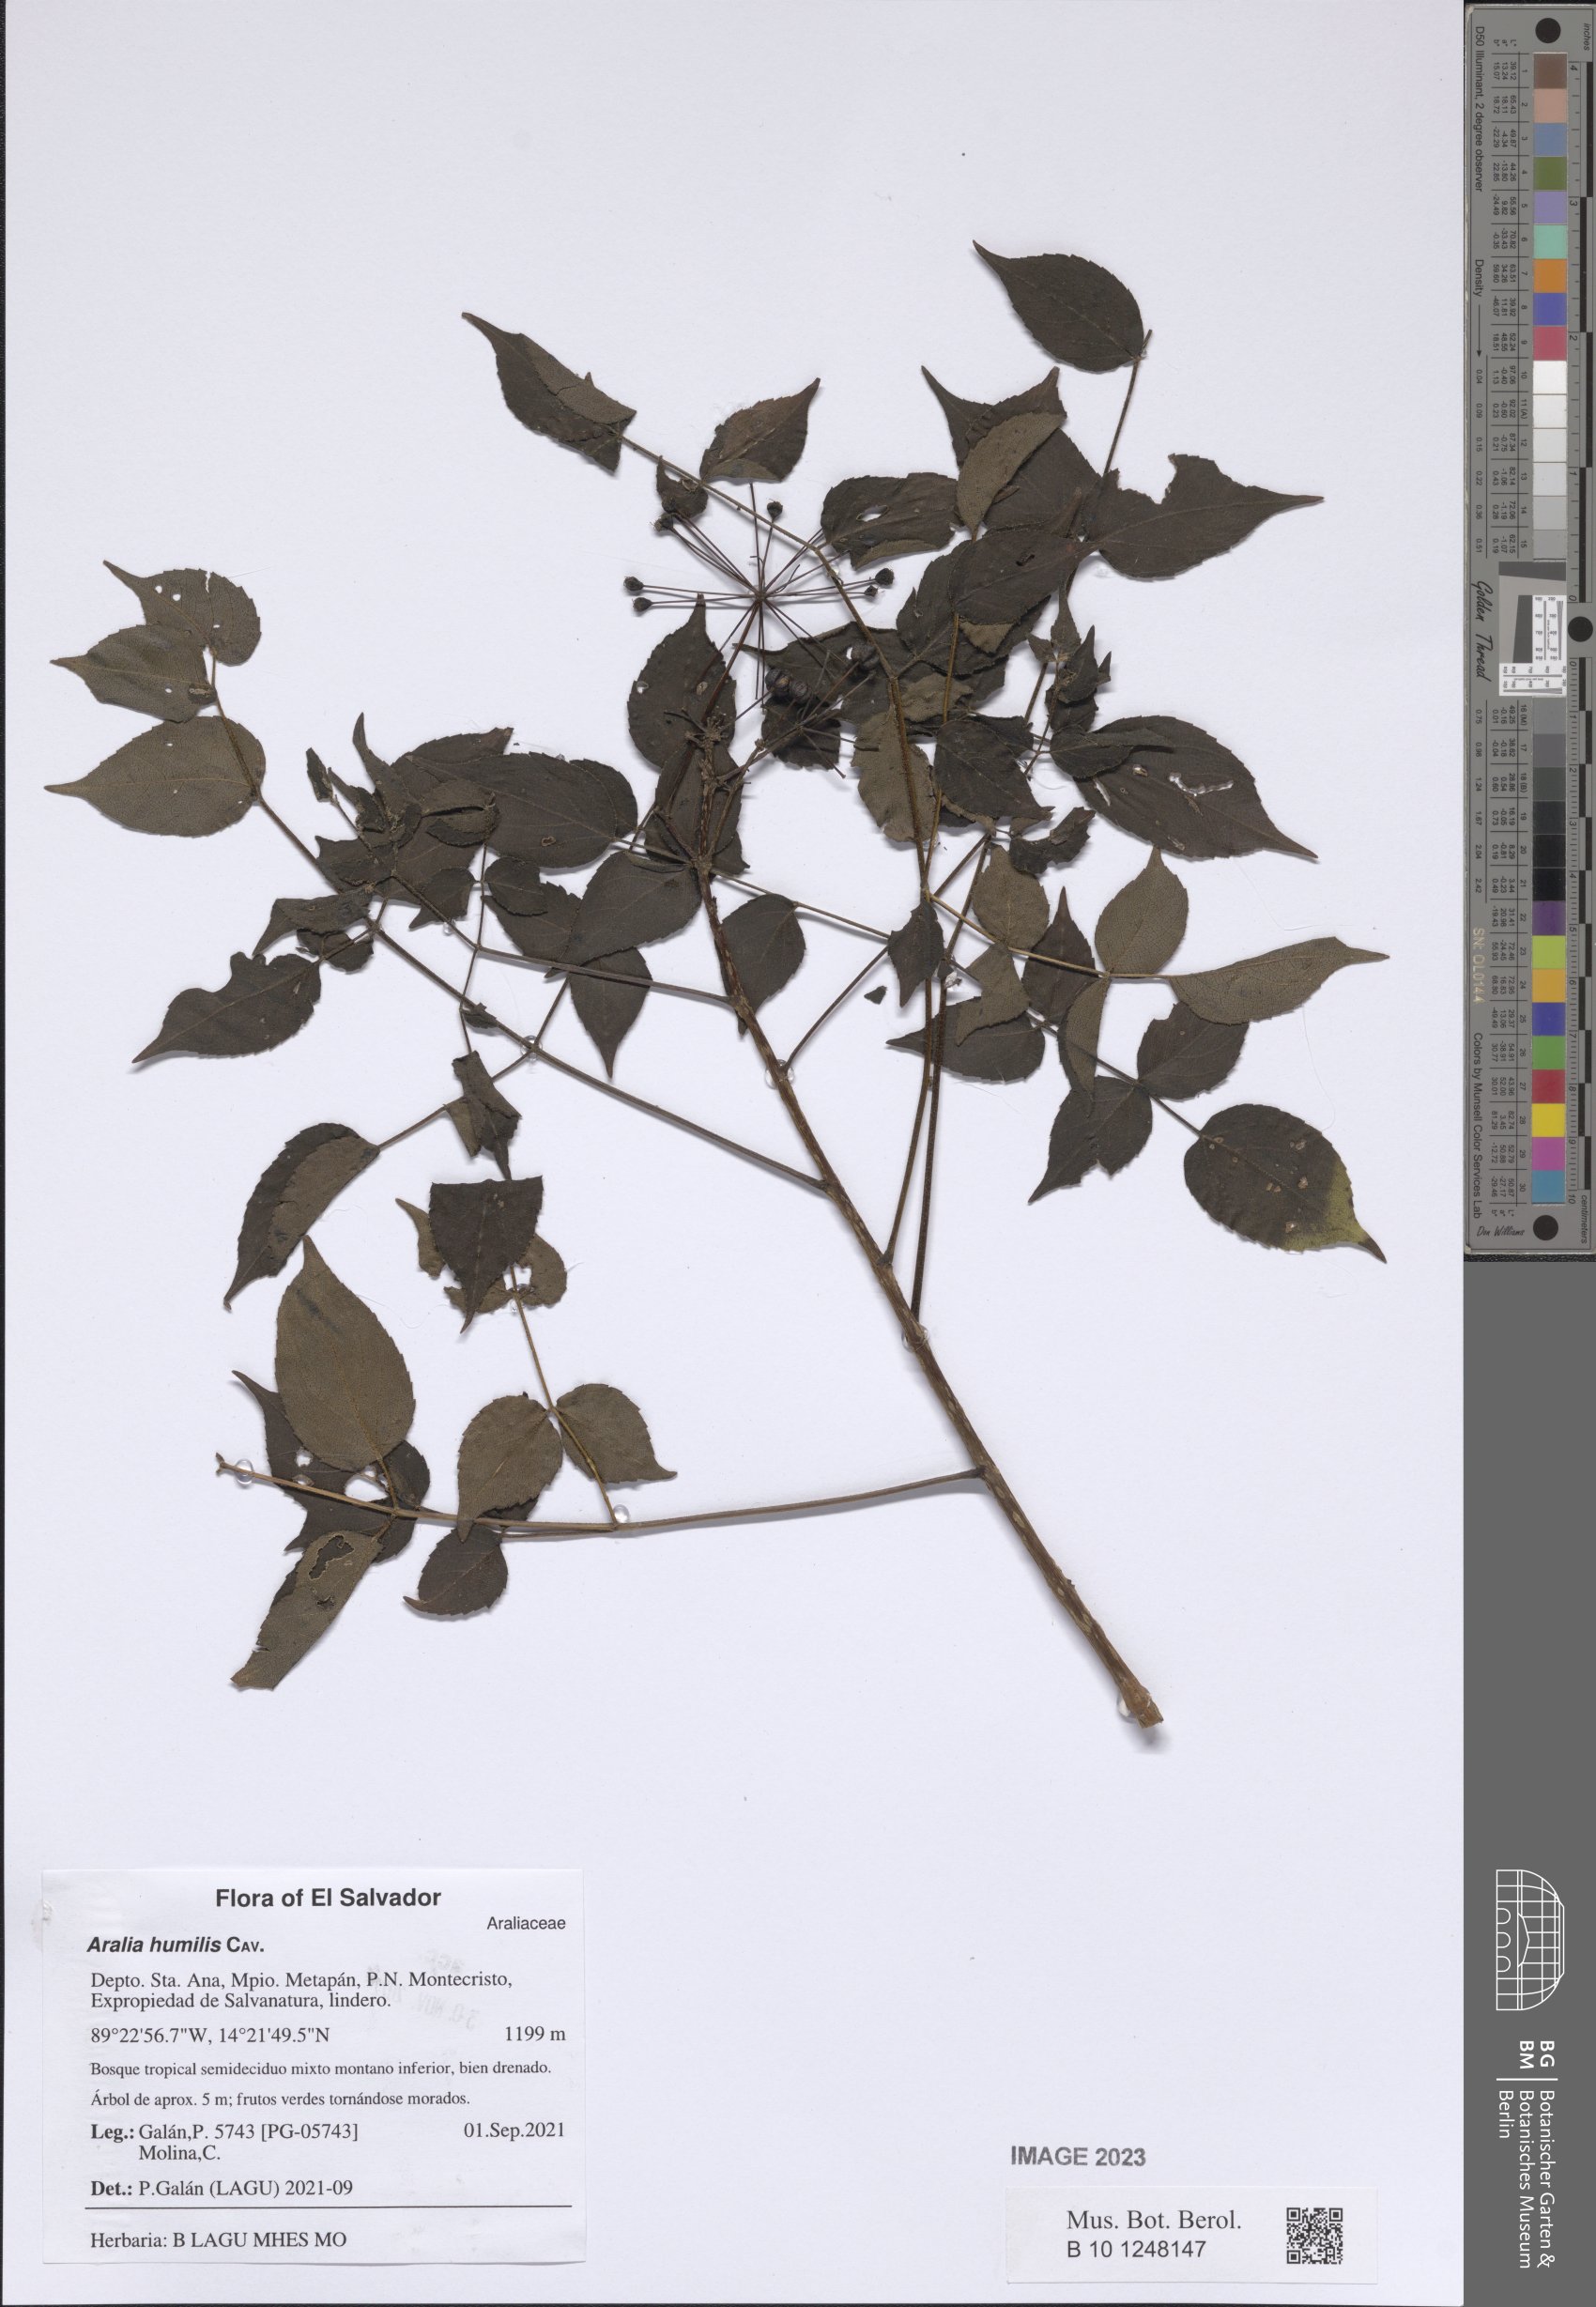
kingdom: Plantae
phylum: Tracheophyta
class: Magnoliopsida
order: Apiales
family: Araliaceae
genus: Aralia
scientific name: Aralia humilis
